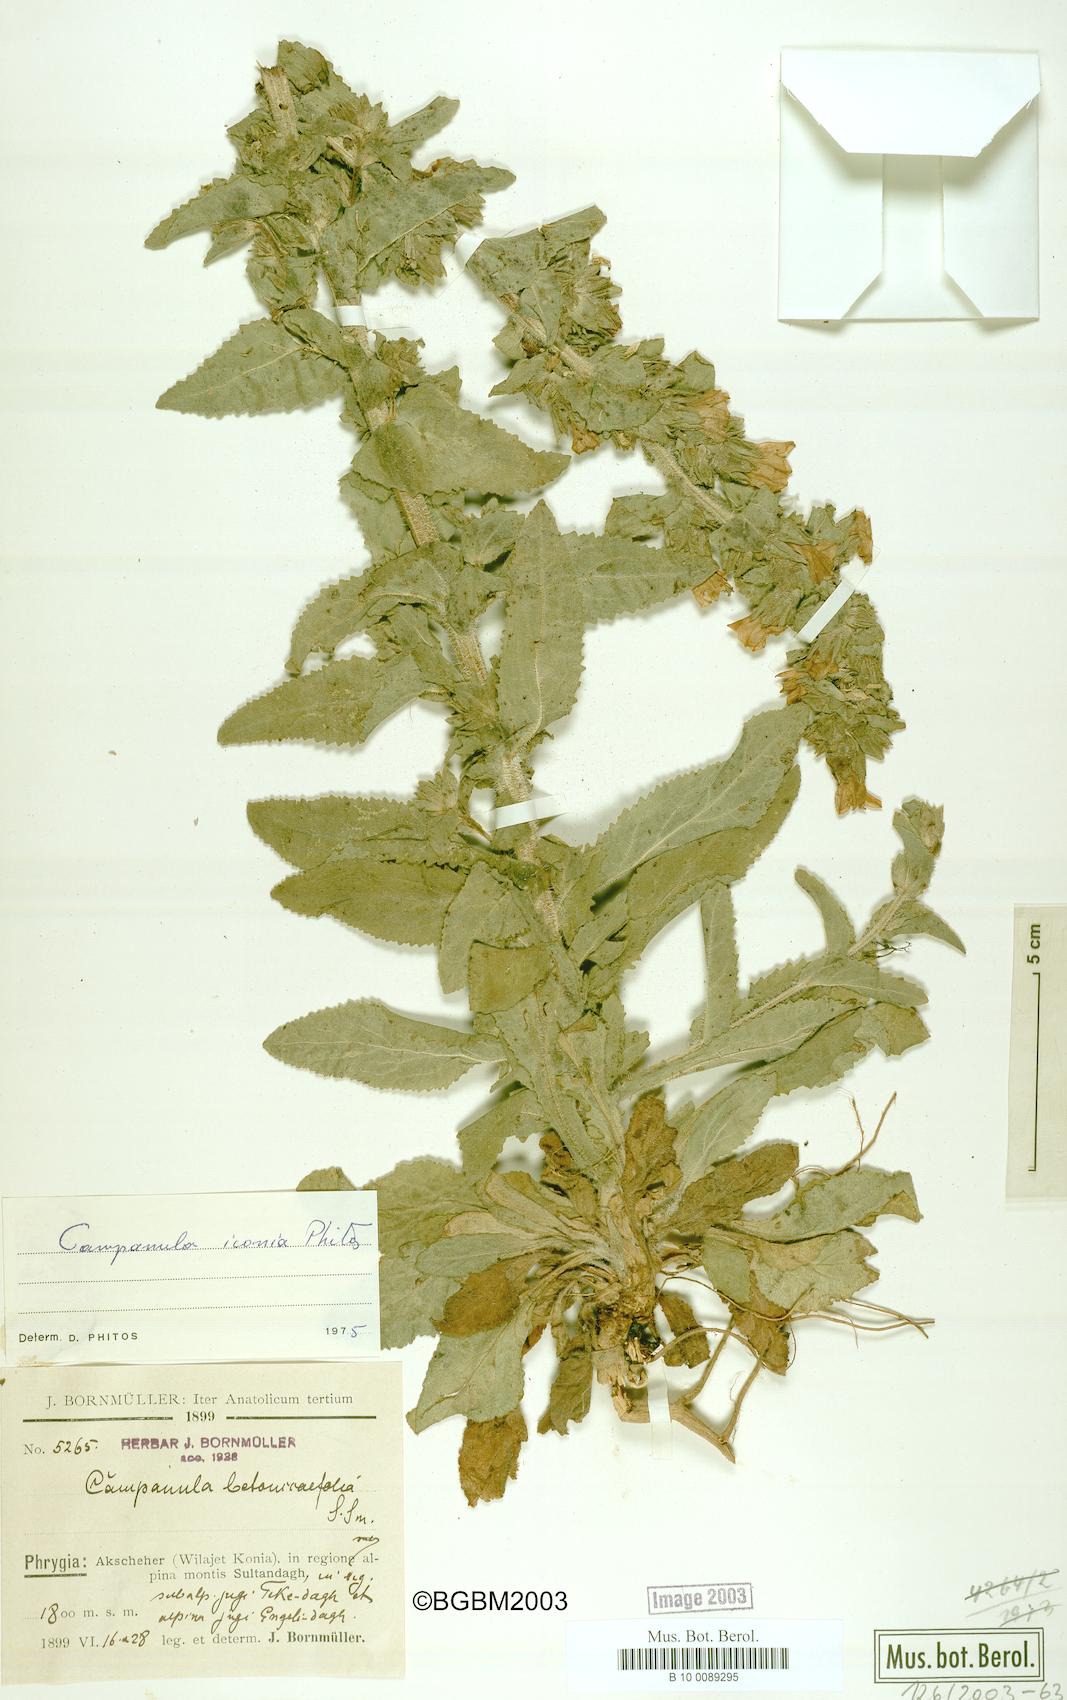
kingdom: Plantae
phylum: Tracheophyta
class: Magnoliopsida
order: Asterales
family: Campanulaceae
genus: Campanula
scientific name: Campanula iconia
